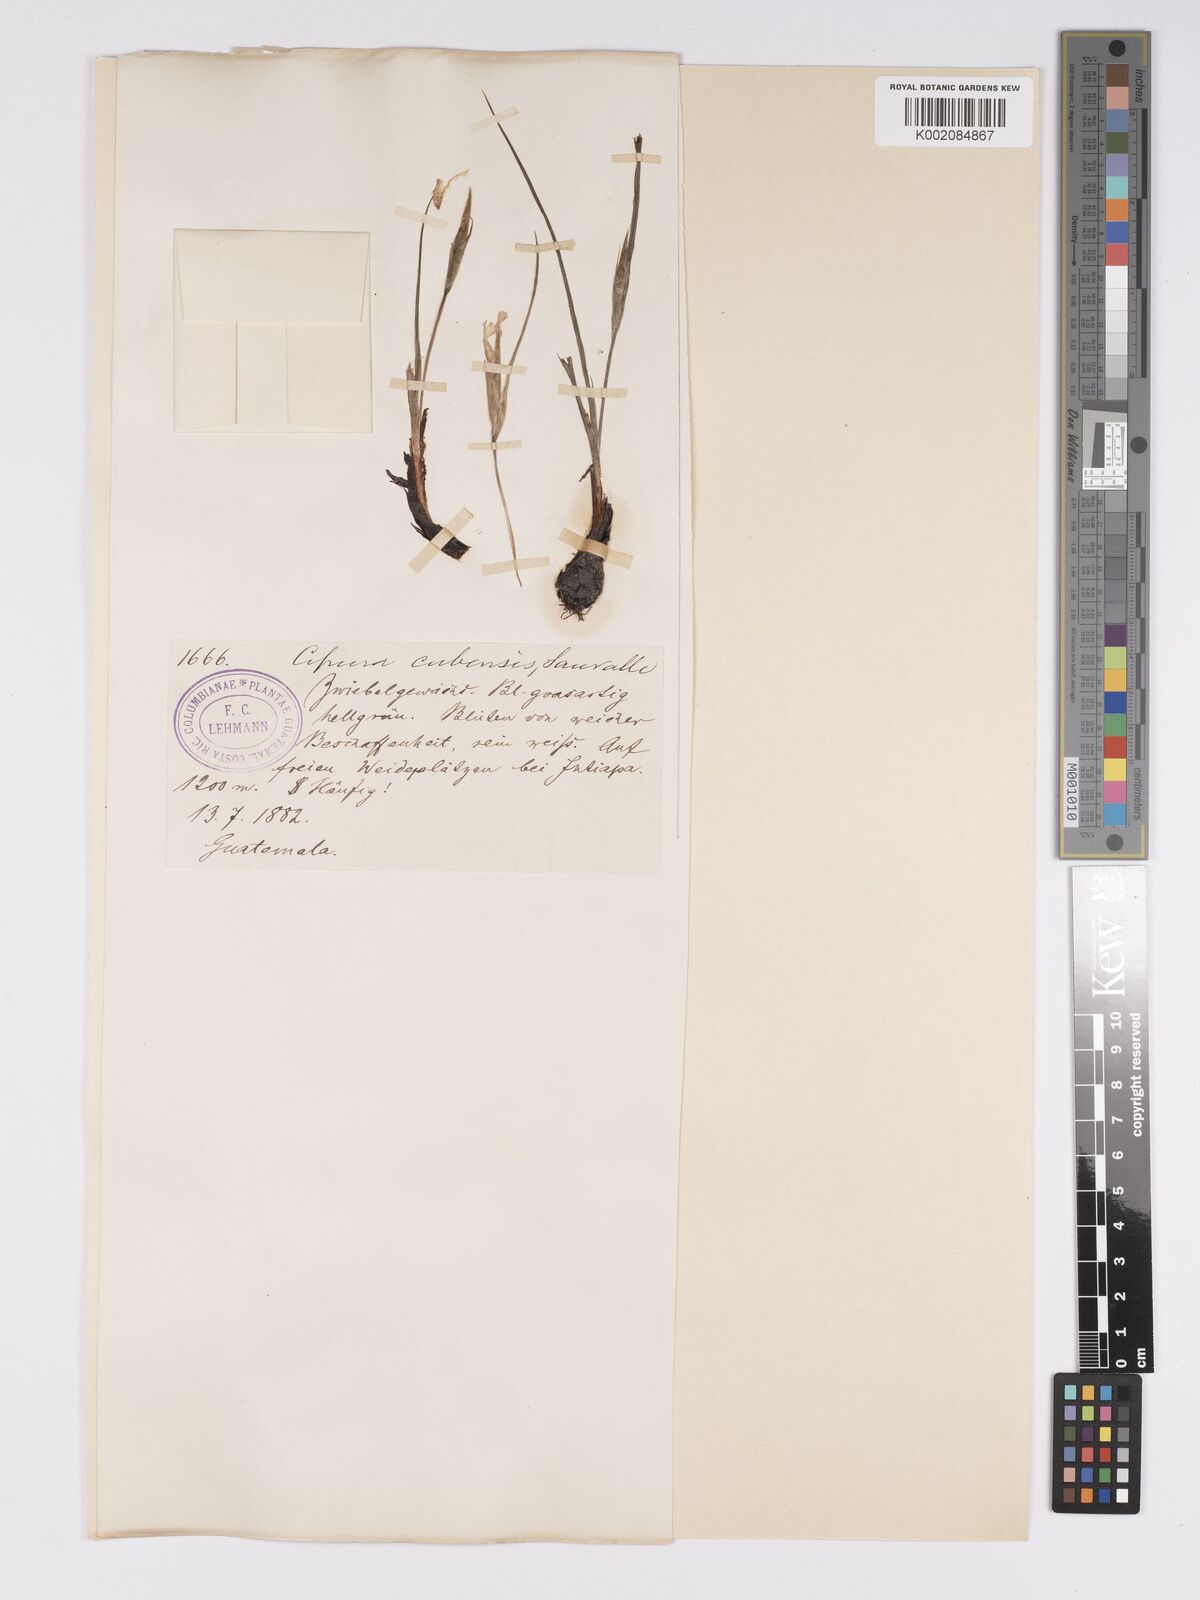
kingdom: Plantae
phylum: Tracheophyta
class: Liliopsida
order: Asparagales
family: Iridaceae
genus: Cipura
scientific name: Cipura paludosa
